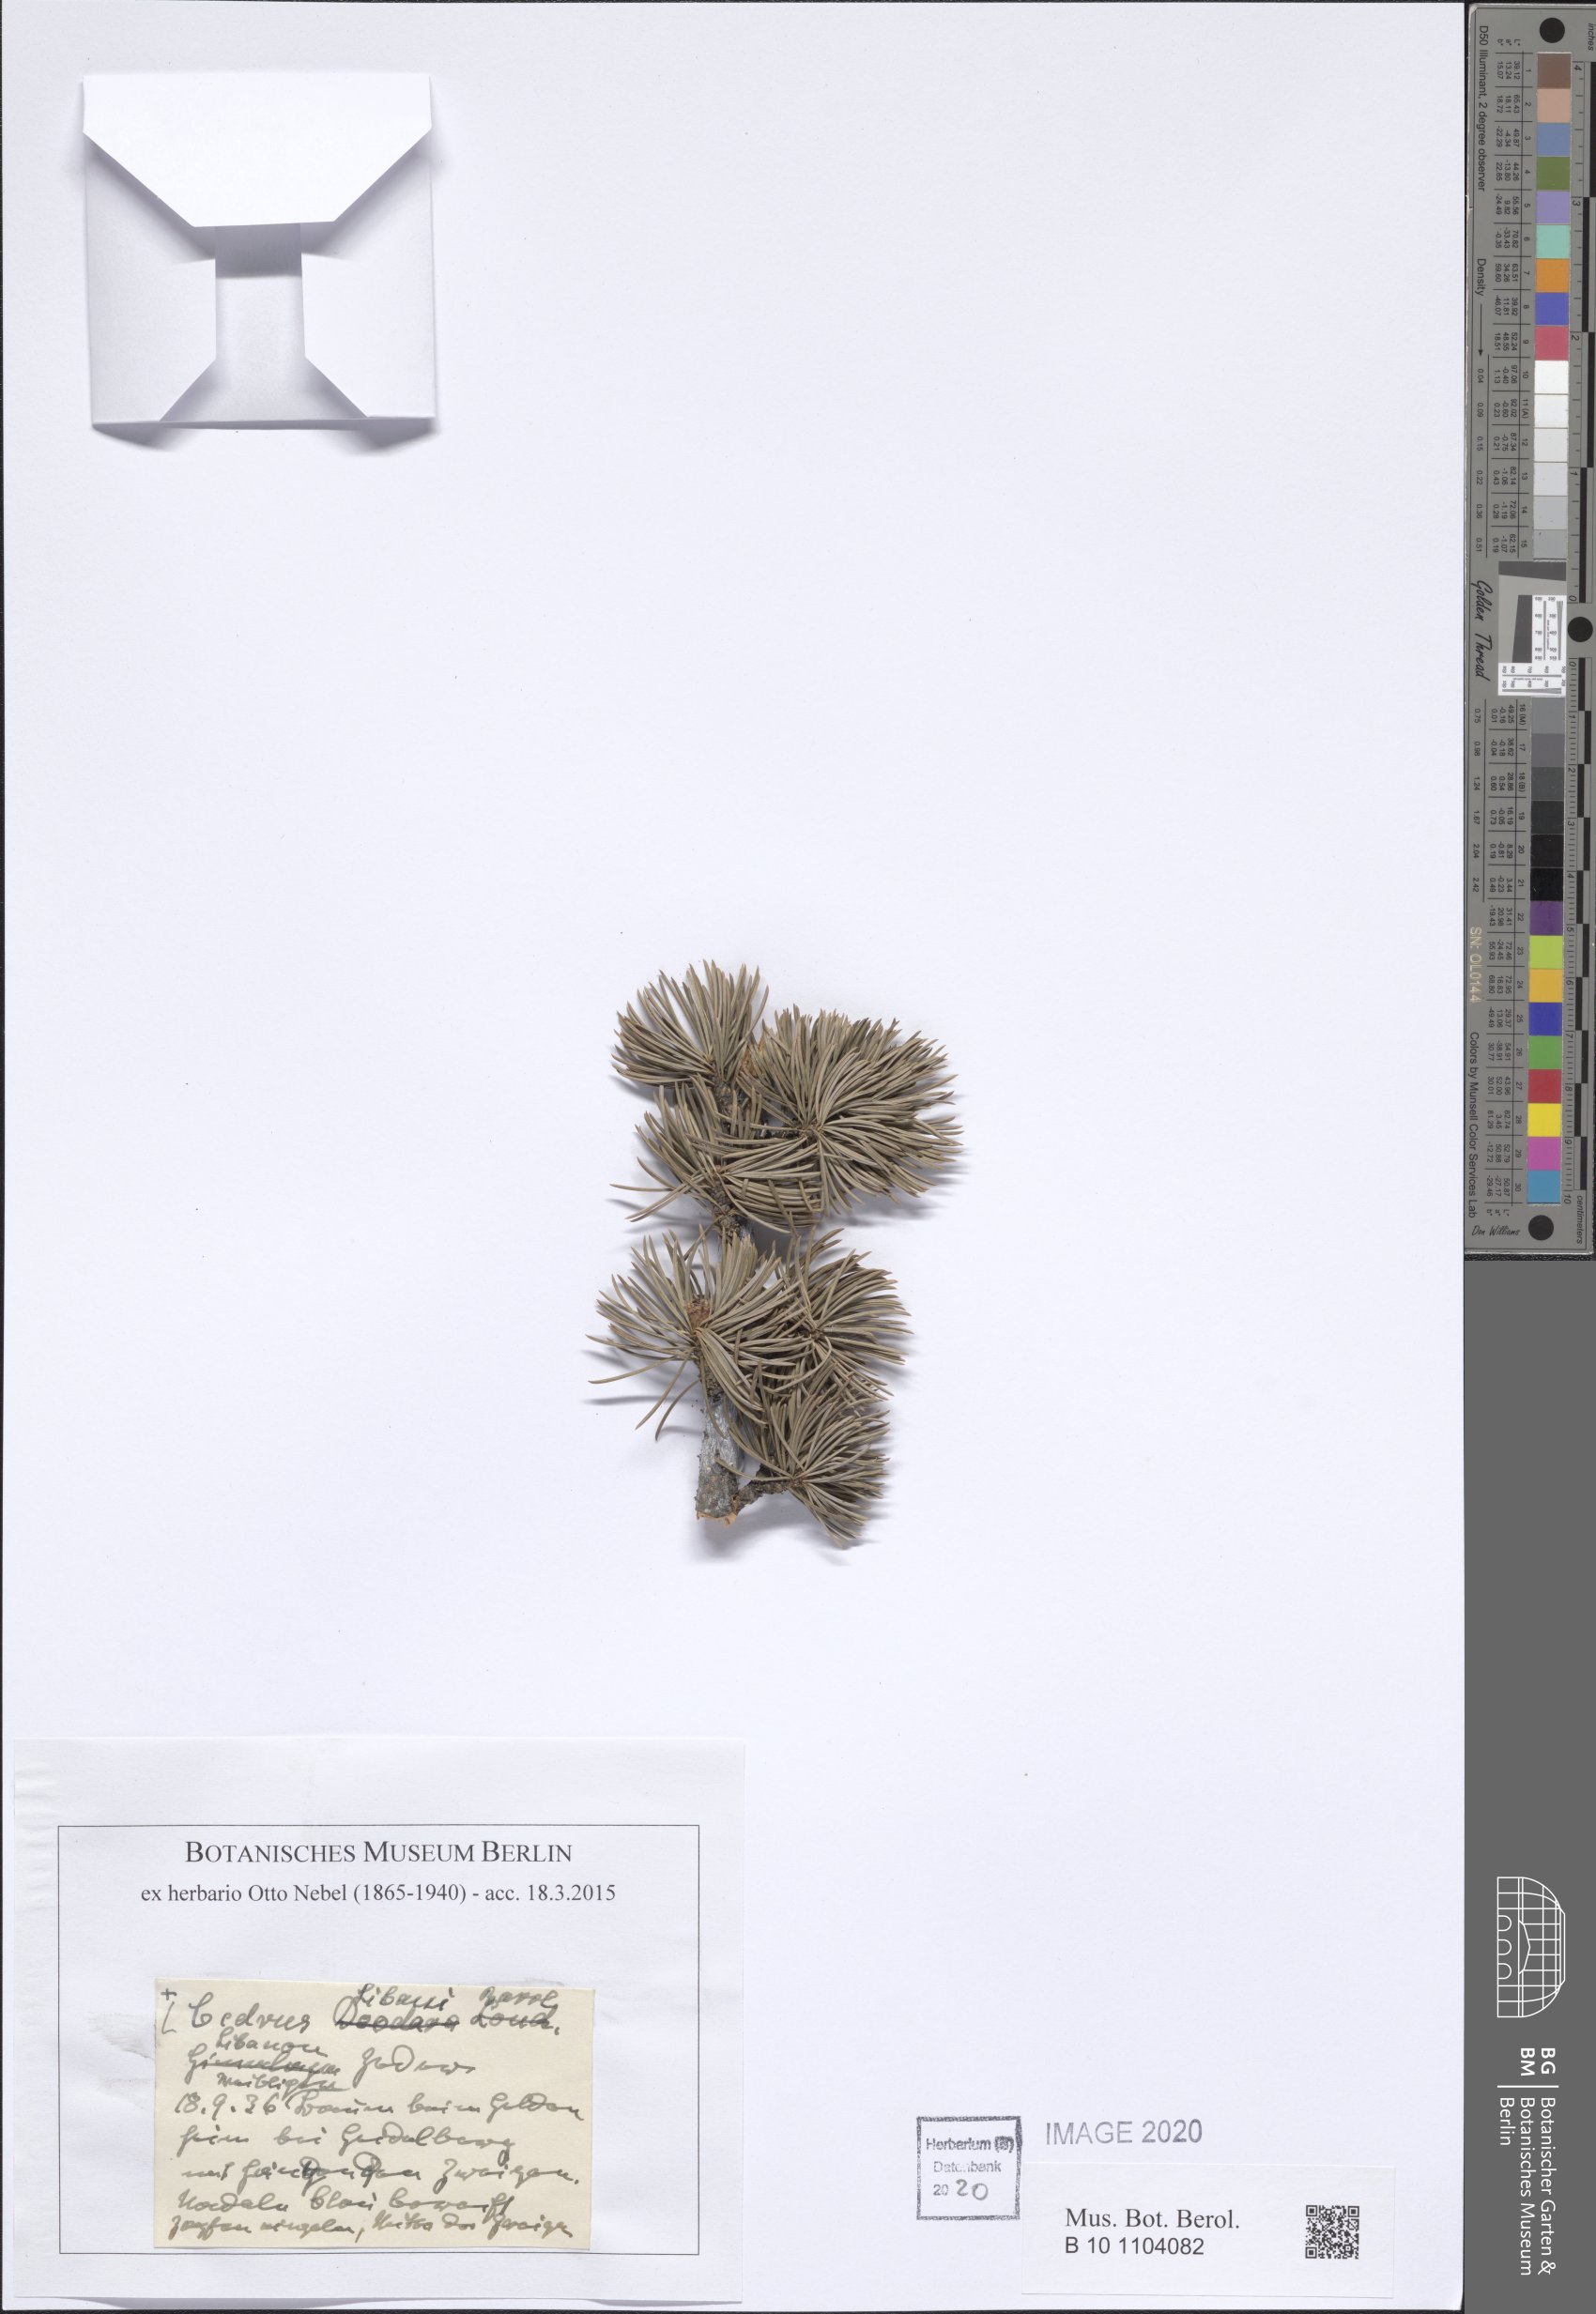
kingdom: Plantae
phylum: Tracheophyta
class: Pinopsida
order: Pinales
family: Pinaceae
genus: Cedrus
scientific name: Cedrus libani
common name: Cedar-of-lebanon
